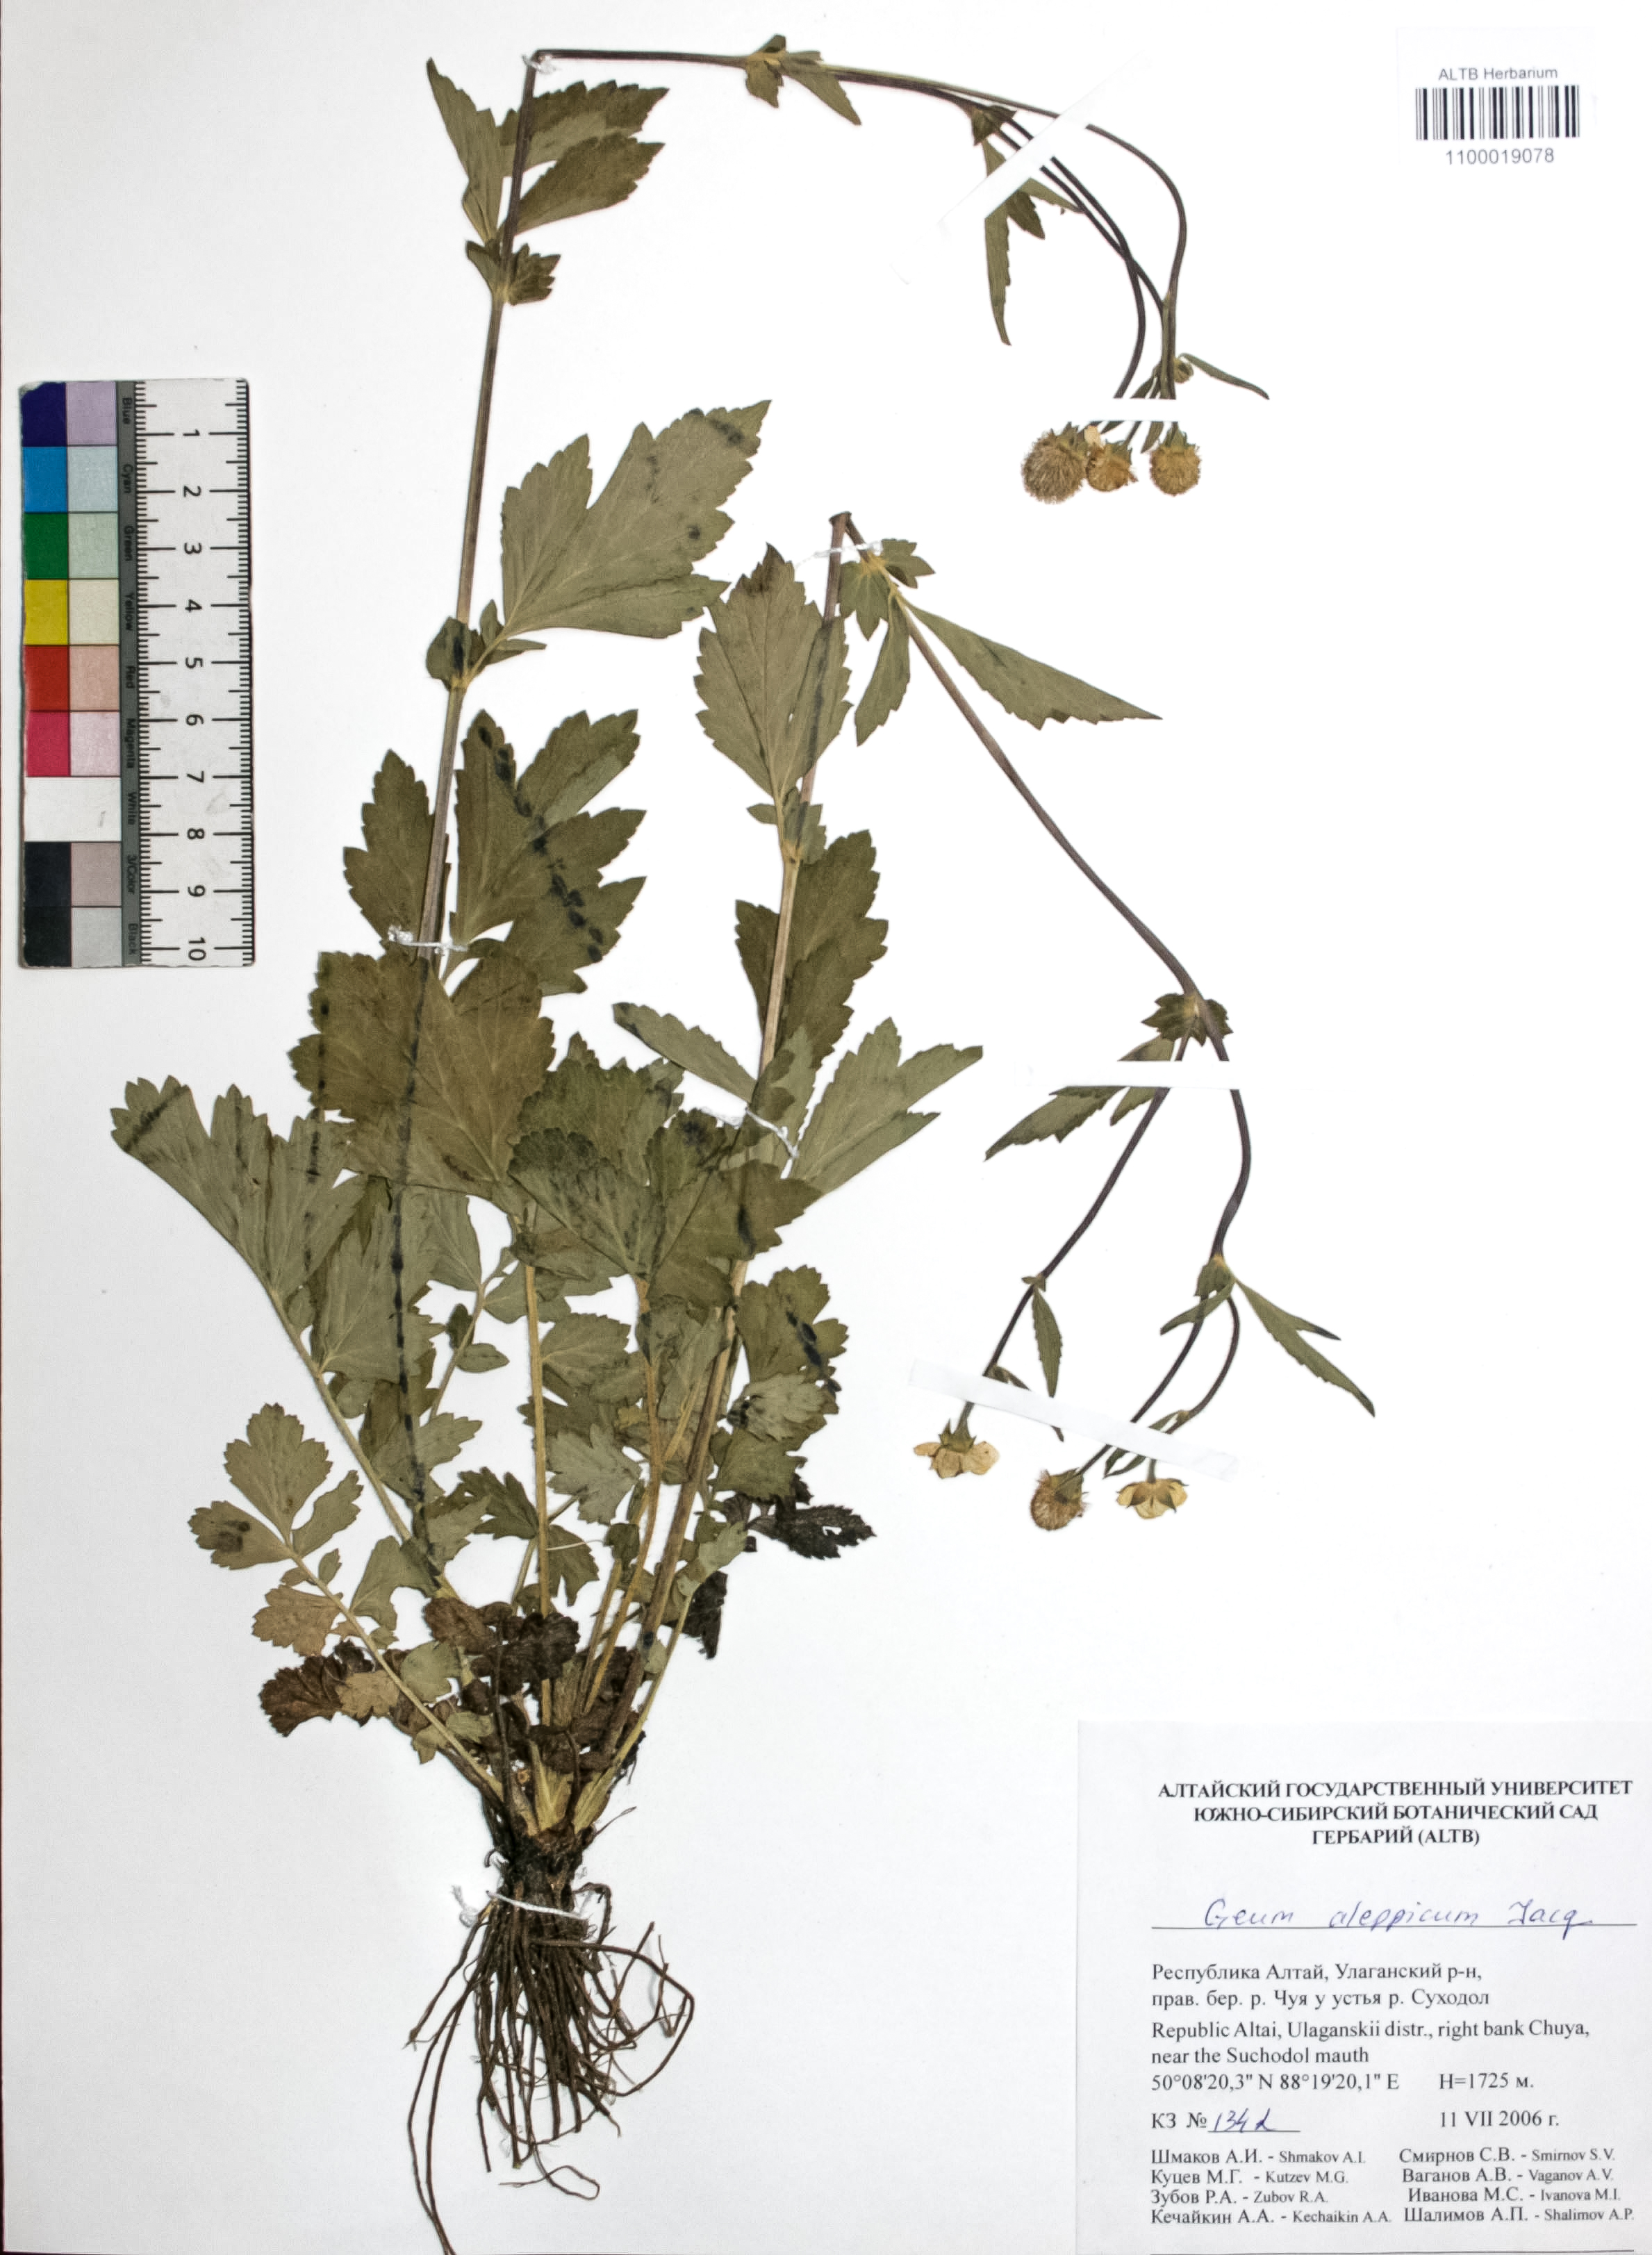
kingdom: Plantae
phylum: Tracheophyta
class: Magnoliopsida
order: Rosales
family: Rosaceae
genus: Geum
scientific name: Geum aleppicum
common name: Yellow avens
